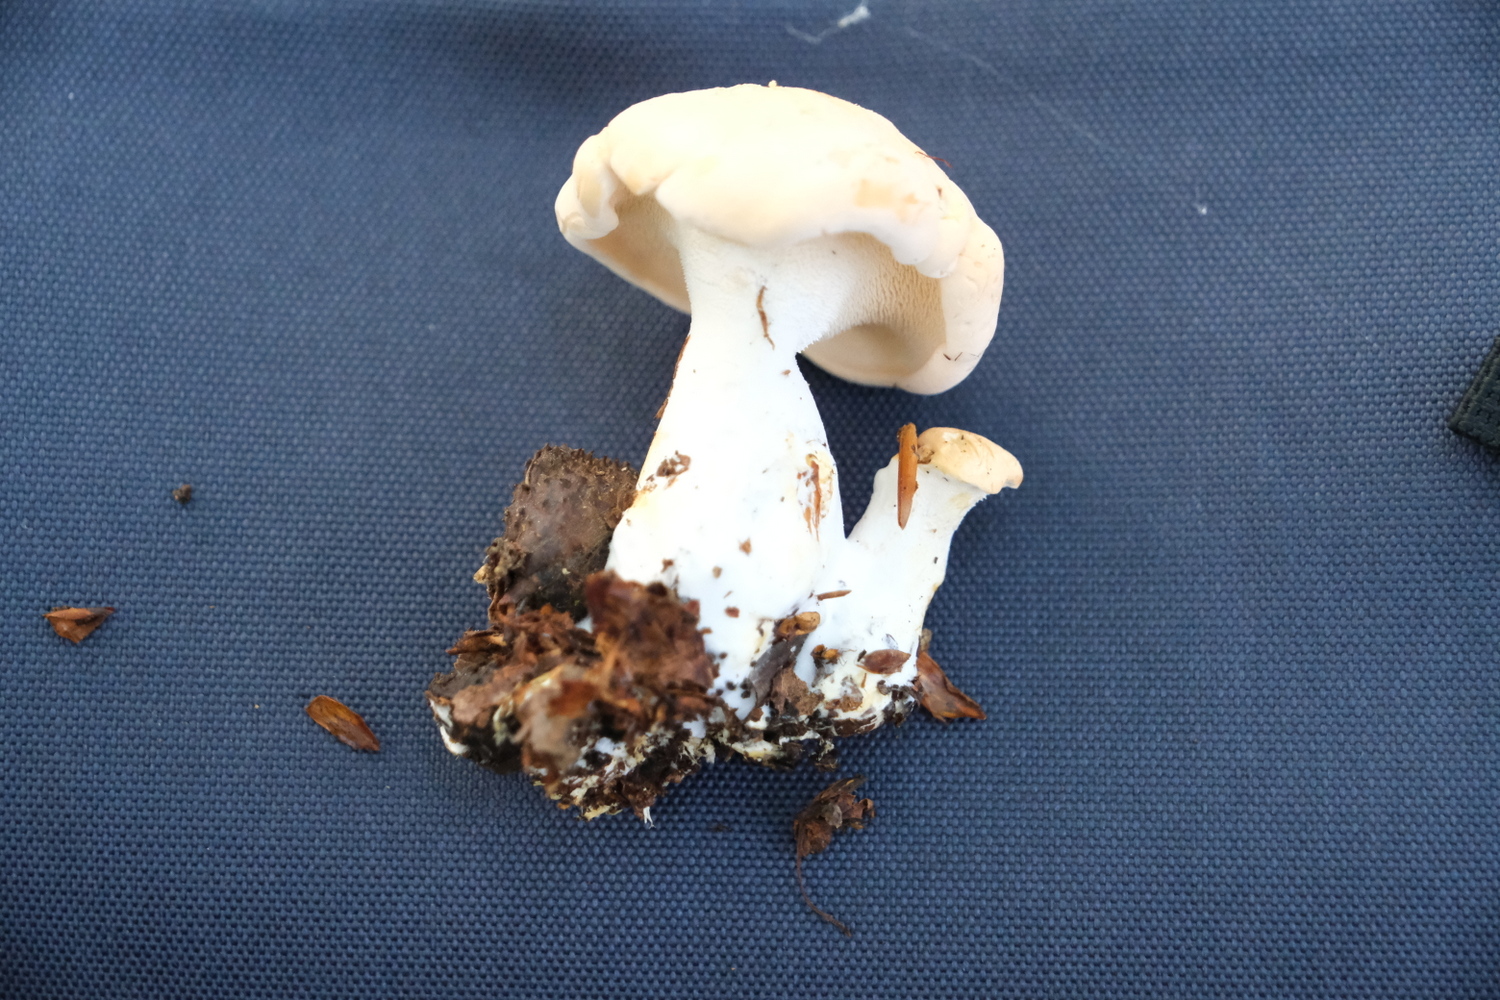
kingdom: Fungi
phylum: Basidiomycota
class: Agaricomycetes
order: Cantharellales
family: Hydnaceae
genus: Hydnum
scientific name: Hydnum repandum
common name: almindelig pigsvamp
